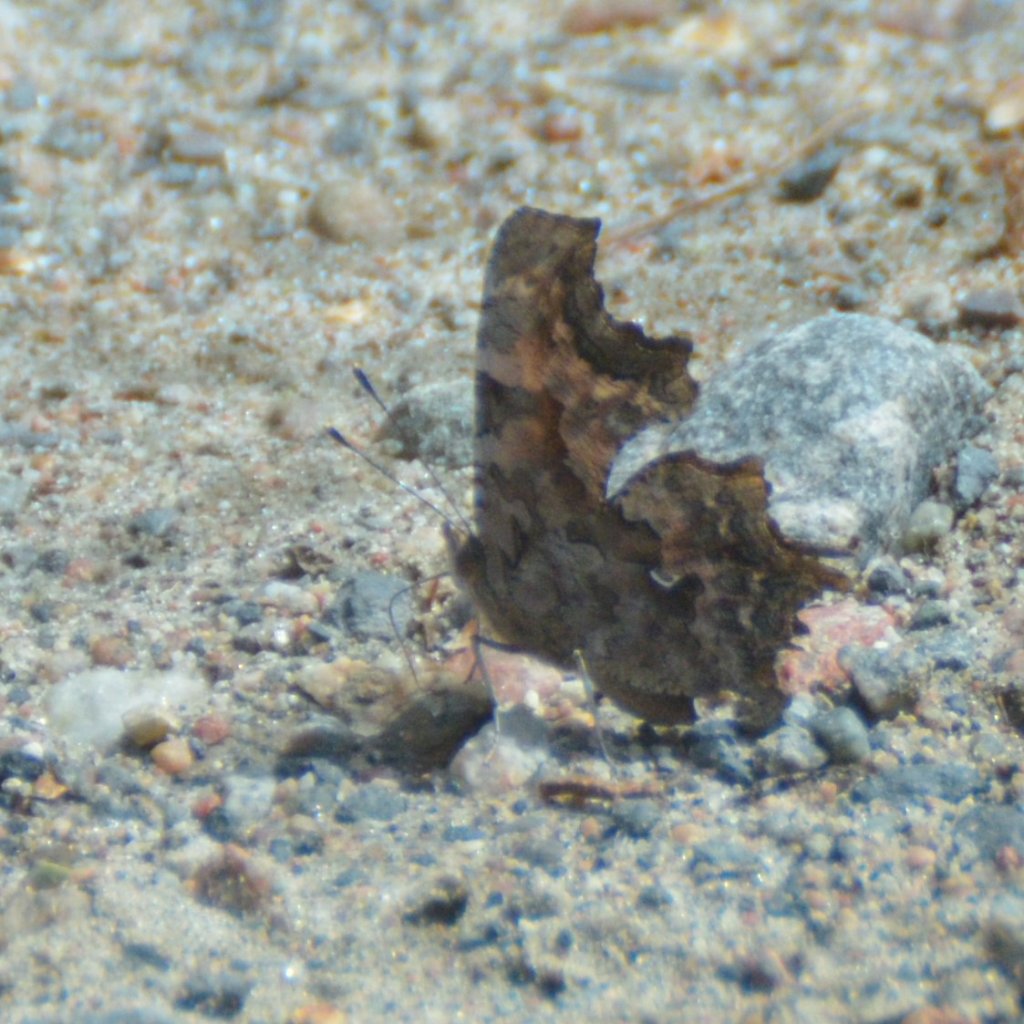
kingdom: Animalia
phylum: Arthropoda
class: Insecta
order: Lepidoptera
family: Nymphalidae
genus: Polygonia
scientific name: Polygonia faunus
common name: Green Comma
